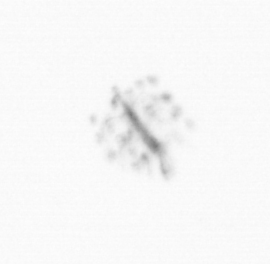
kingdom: Chromista
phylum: Ochrophyta
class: Bacillariophyceae
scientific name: Bacillariophyceae
